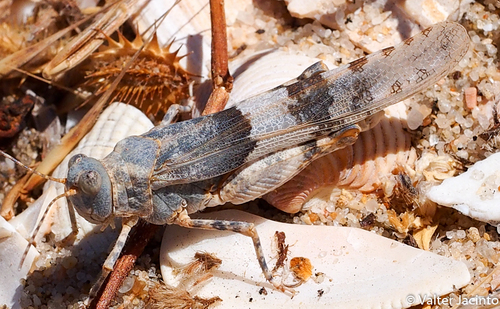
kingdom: Animalia
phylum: Arthropoda
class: Insecta
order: Orthoptera
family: Acrididae
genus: Sphingonotus
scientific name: Sphingonotus azurescens
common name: Azure sand grasshopper
